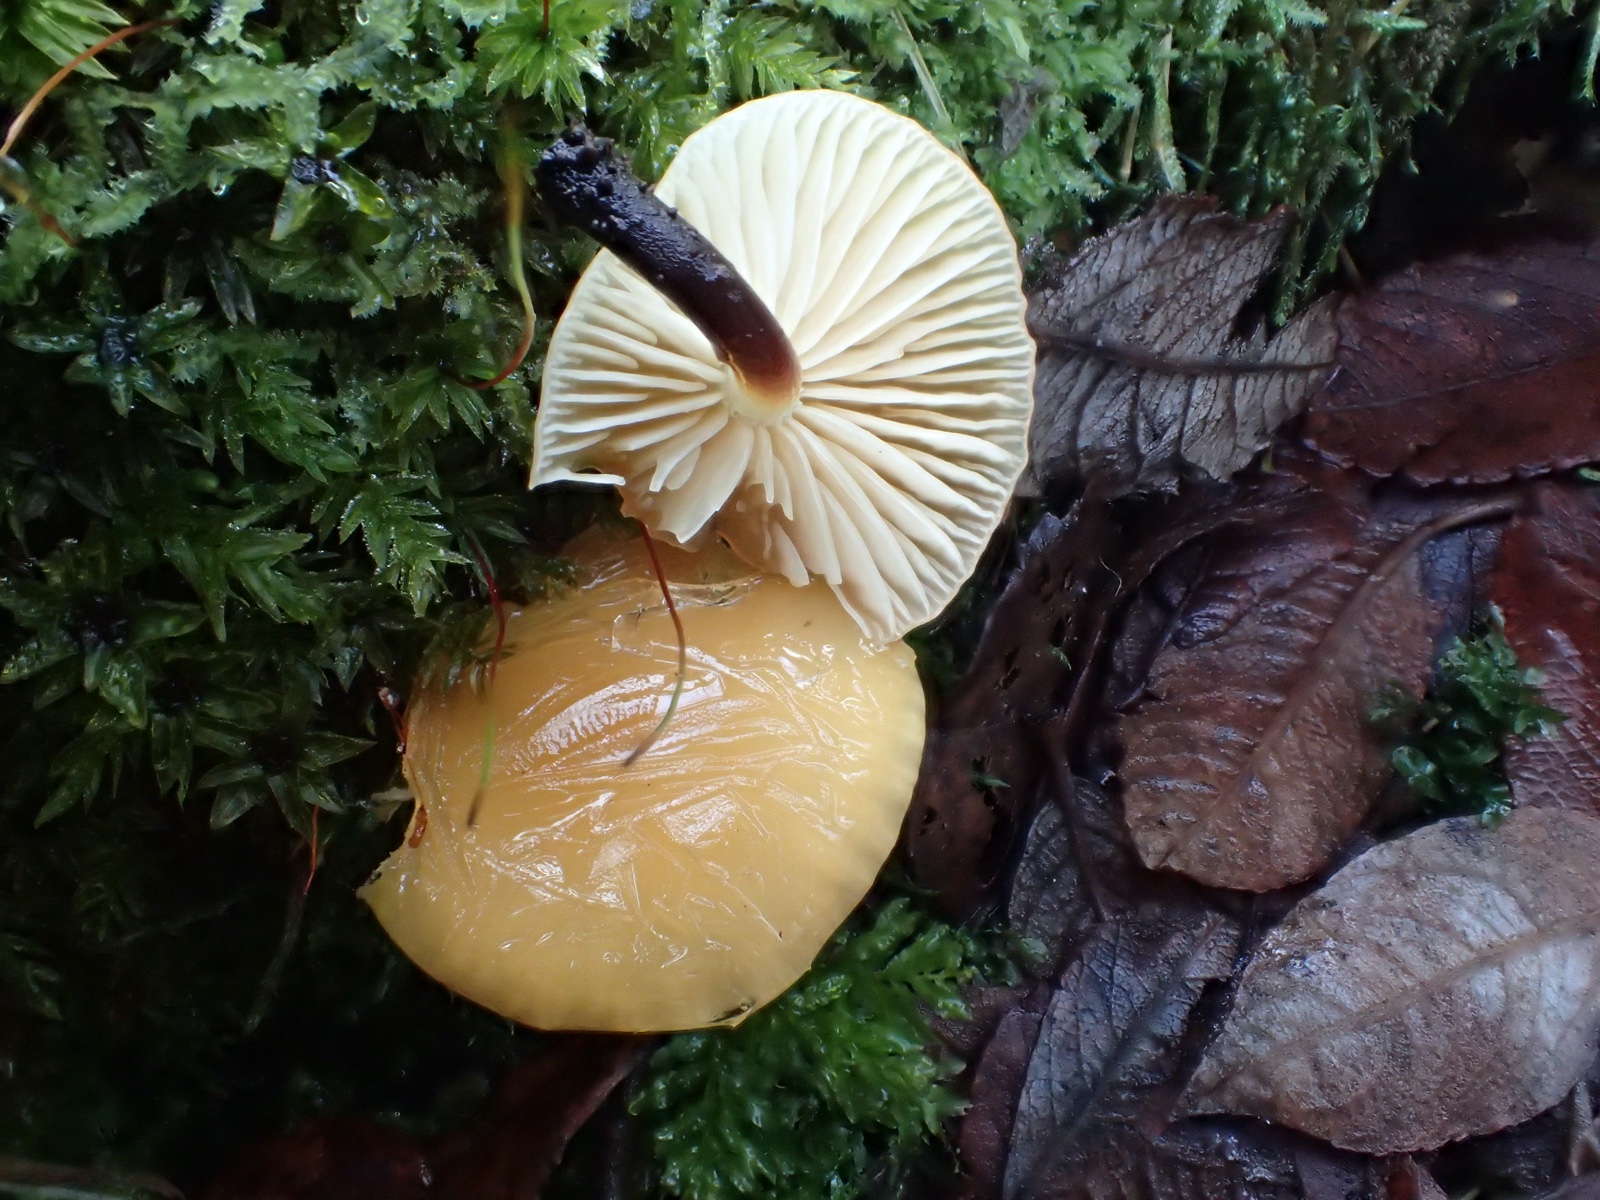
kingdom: Fungi
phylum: Basidiomycota
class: Agaricomycetes
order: Agaricales
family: Physalacriaceae
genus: Flammulina
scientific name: Flammulina
